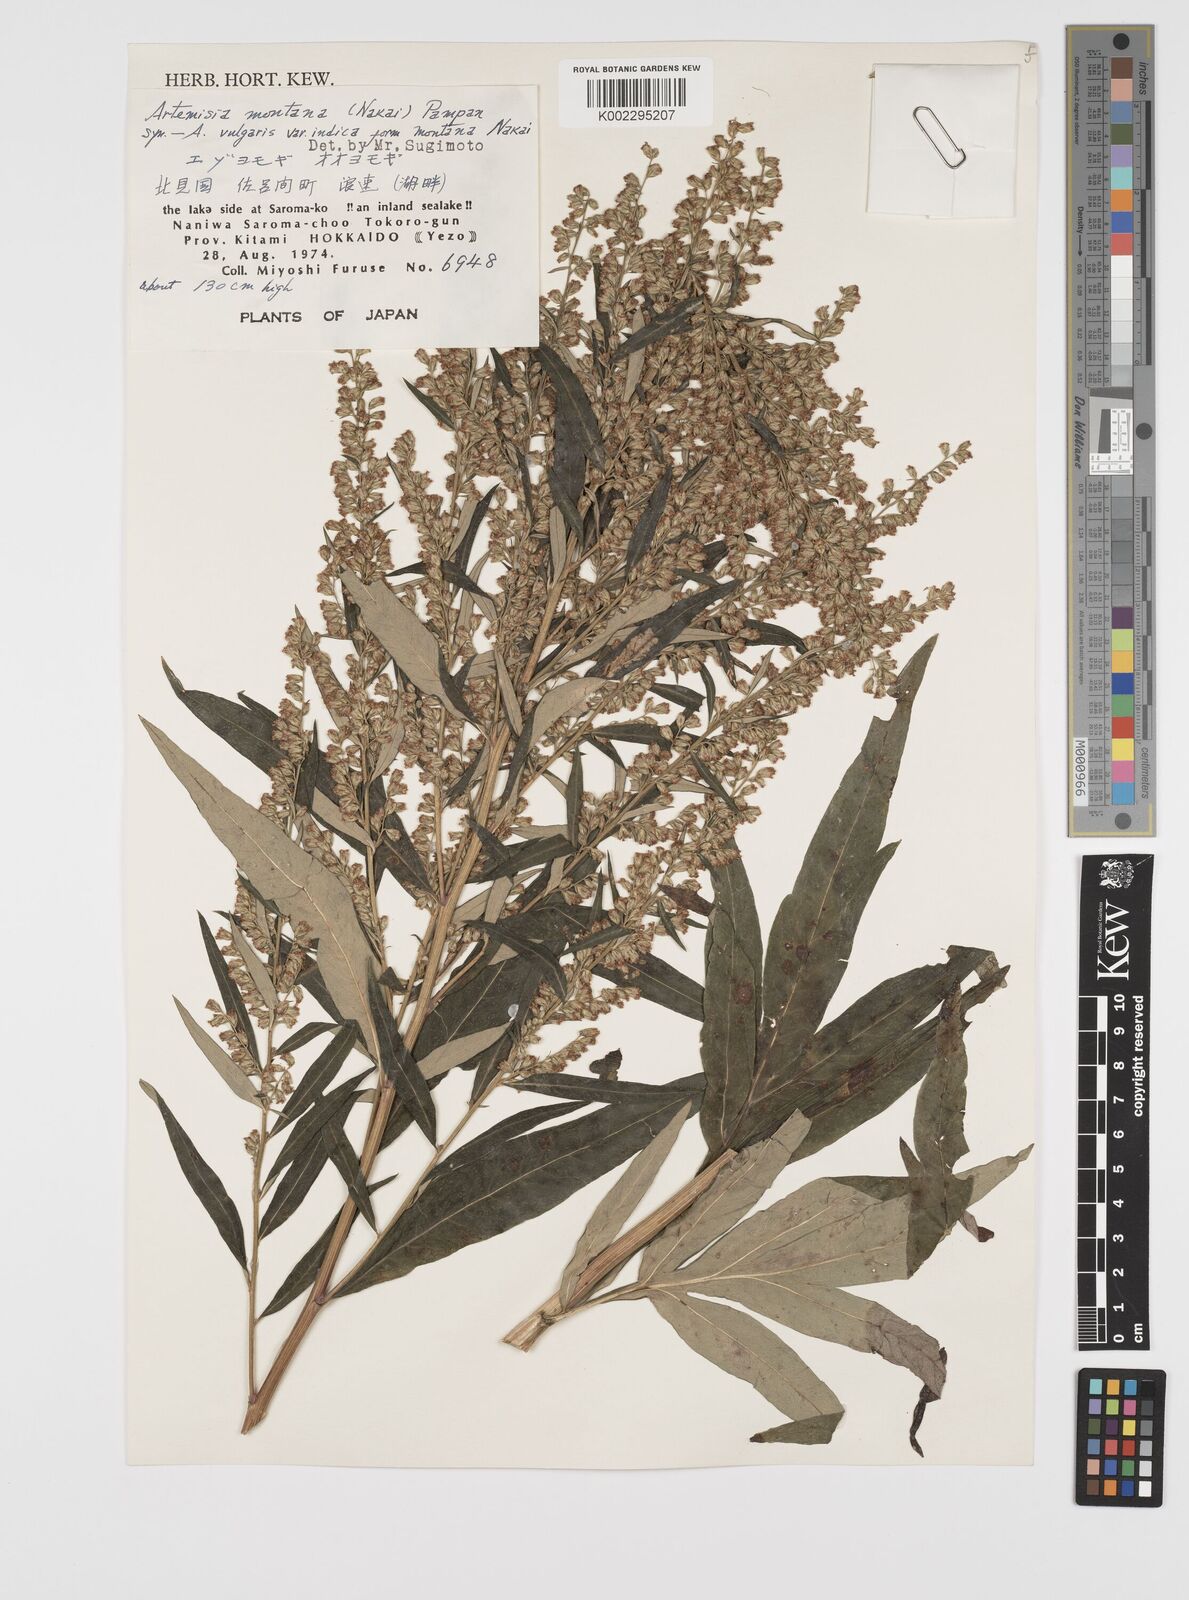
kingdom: Plantae
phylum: Tracheophyta
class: Magnoliopsida
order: Asterales
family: Asteraceae
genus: Artemisia
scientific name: Artemisia montana
